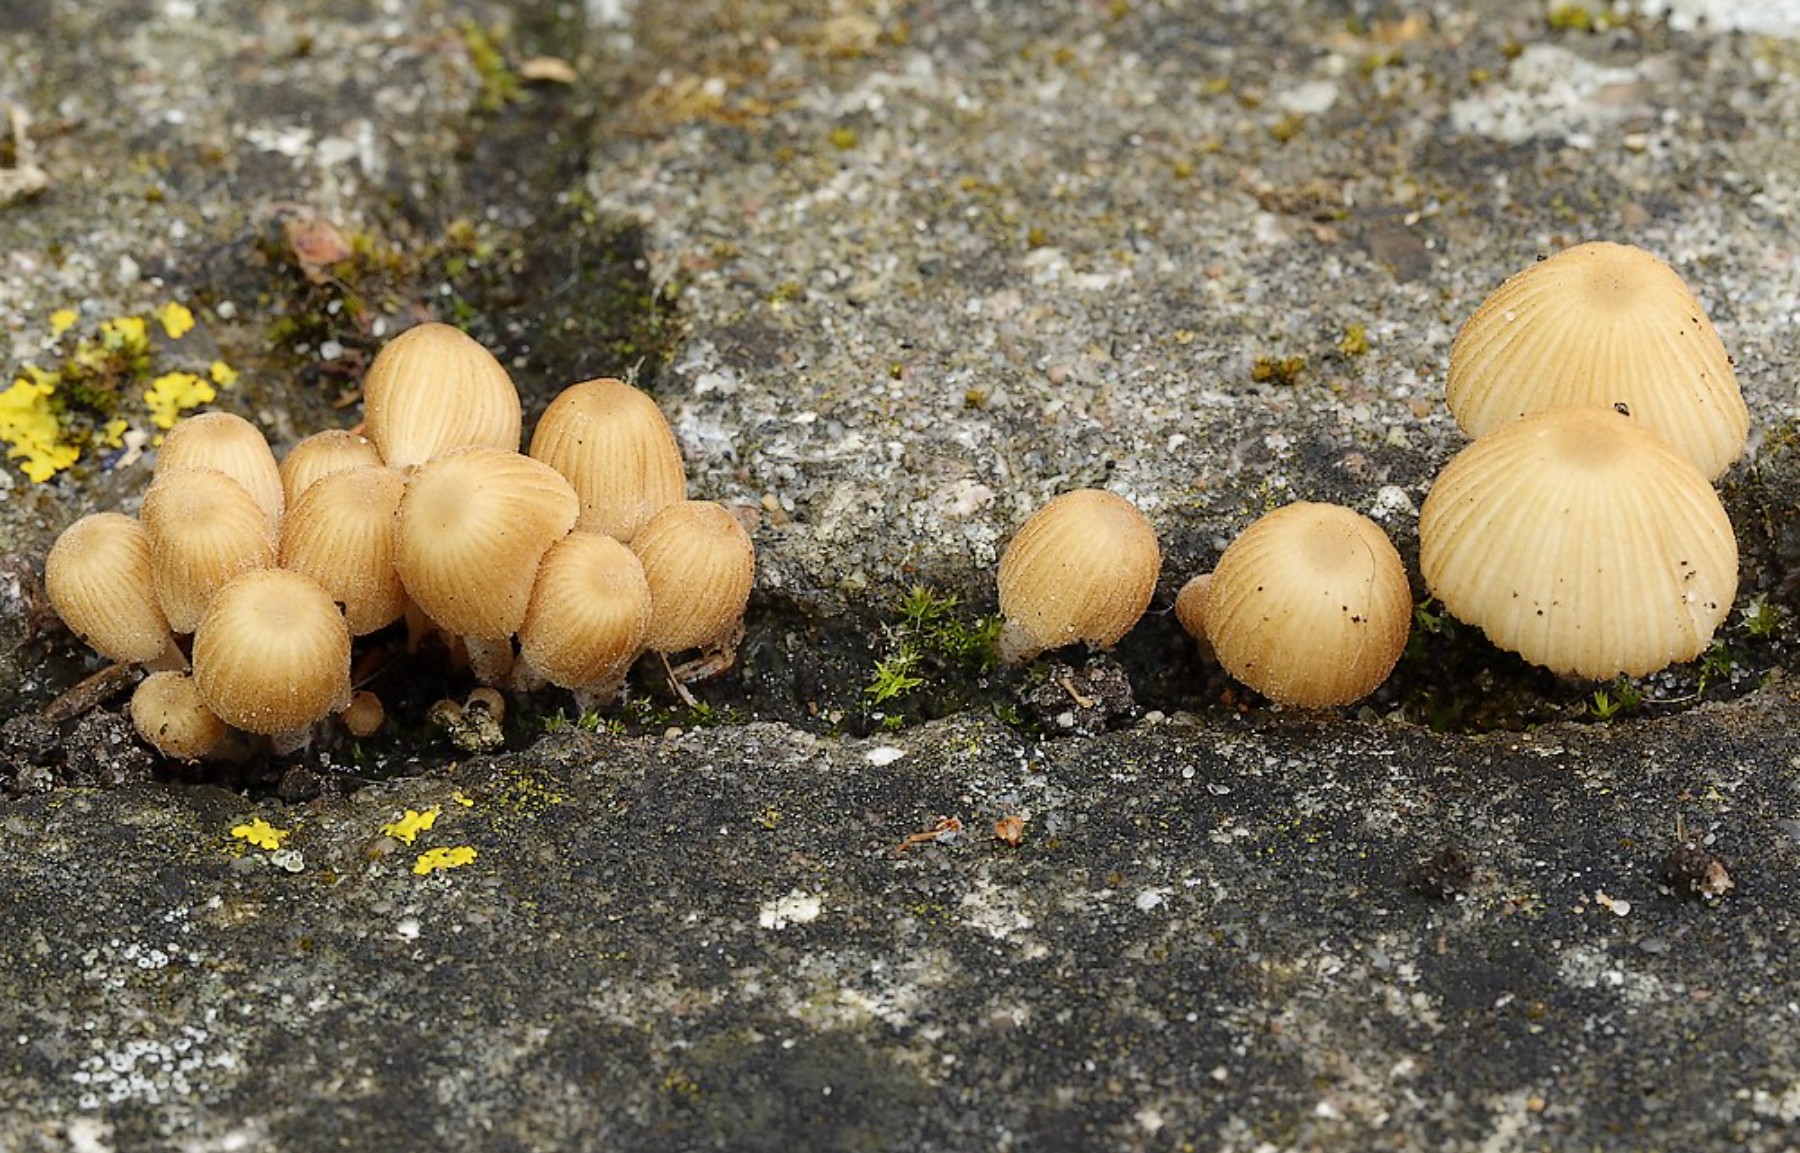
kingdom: Fungi
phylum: Basidiomycota
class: Agaricomycetes
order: Agaricales
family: Psathyrellaceae
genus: Coprinellus
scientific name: Coprinellus disseminatus
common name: bredsået blækhat
